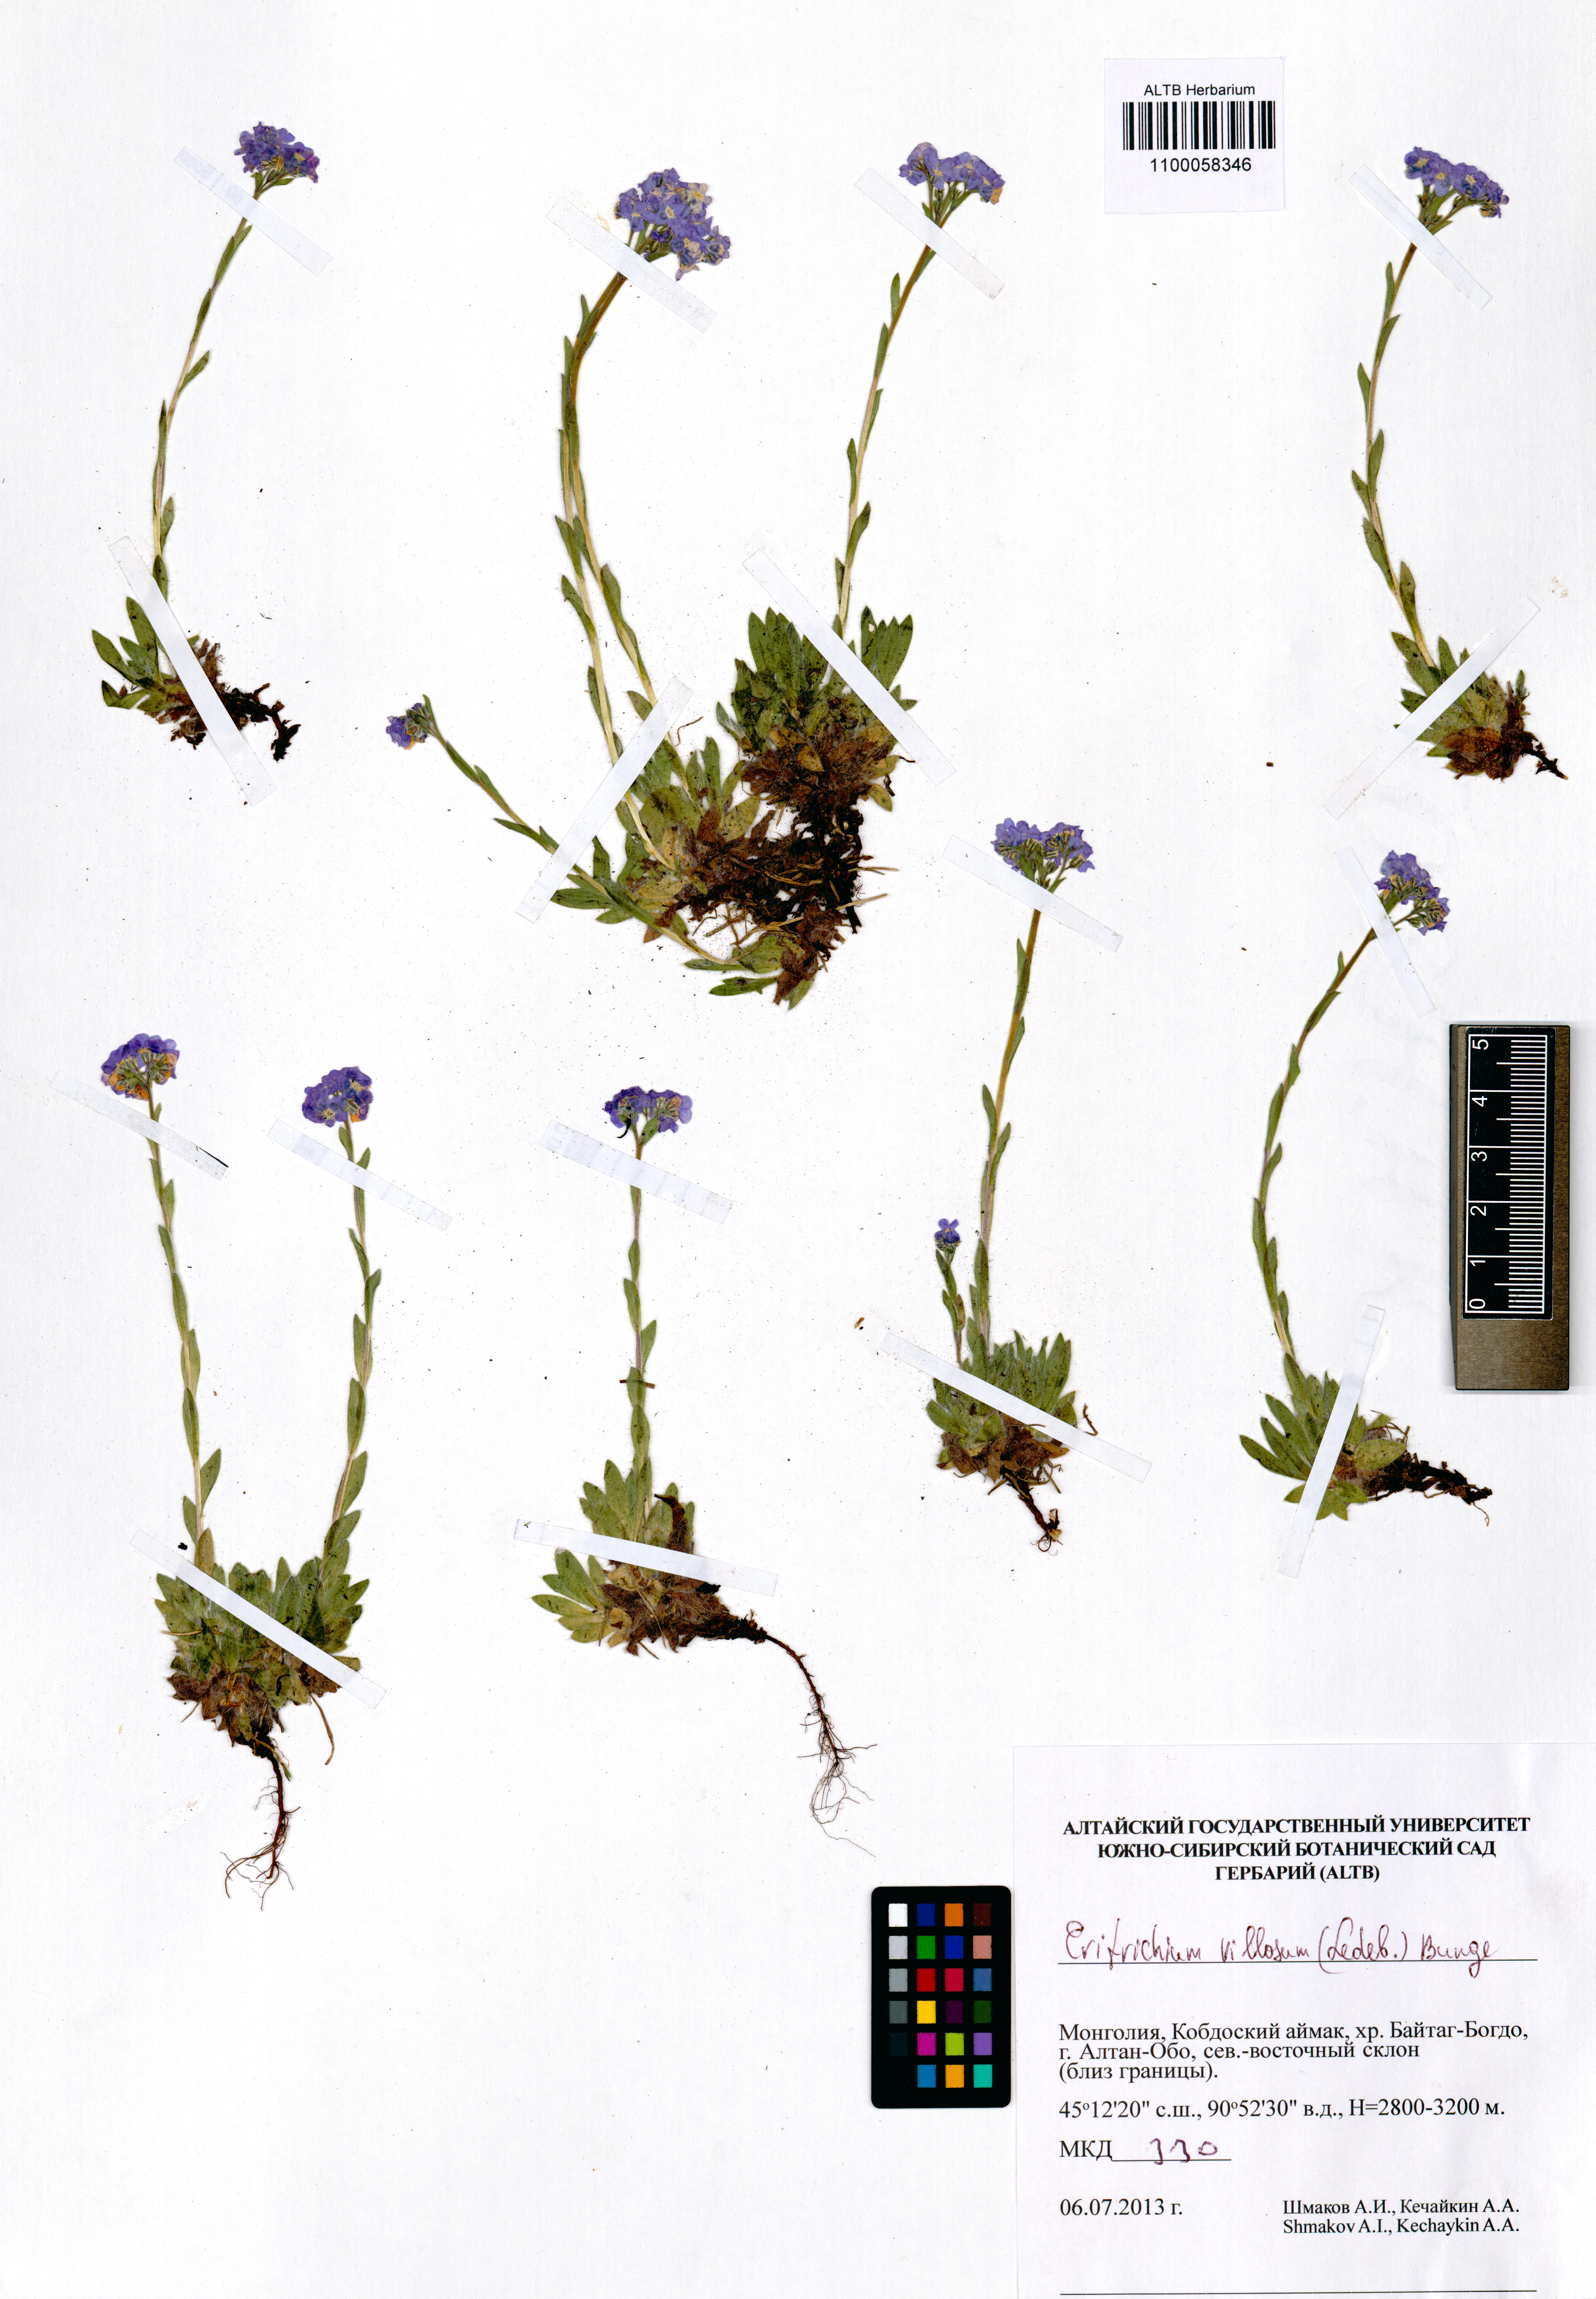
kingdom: Plantae
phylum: Tracheophyta
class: Magnoliopsida
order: Boraginales
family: Boraginaceae
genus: Eritrichium
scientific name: Eritrichium villosum
